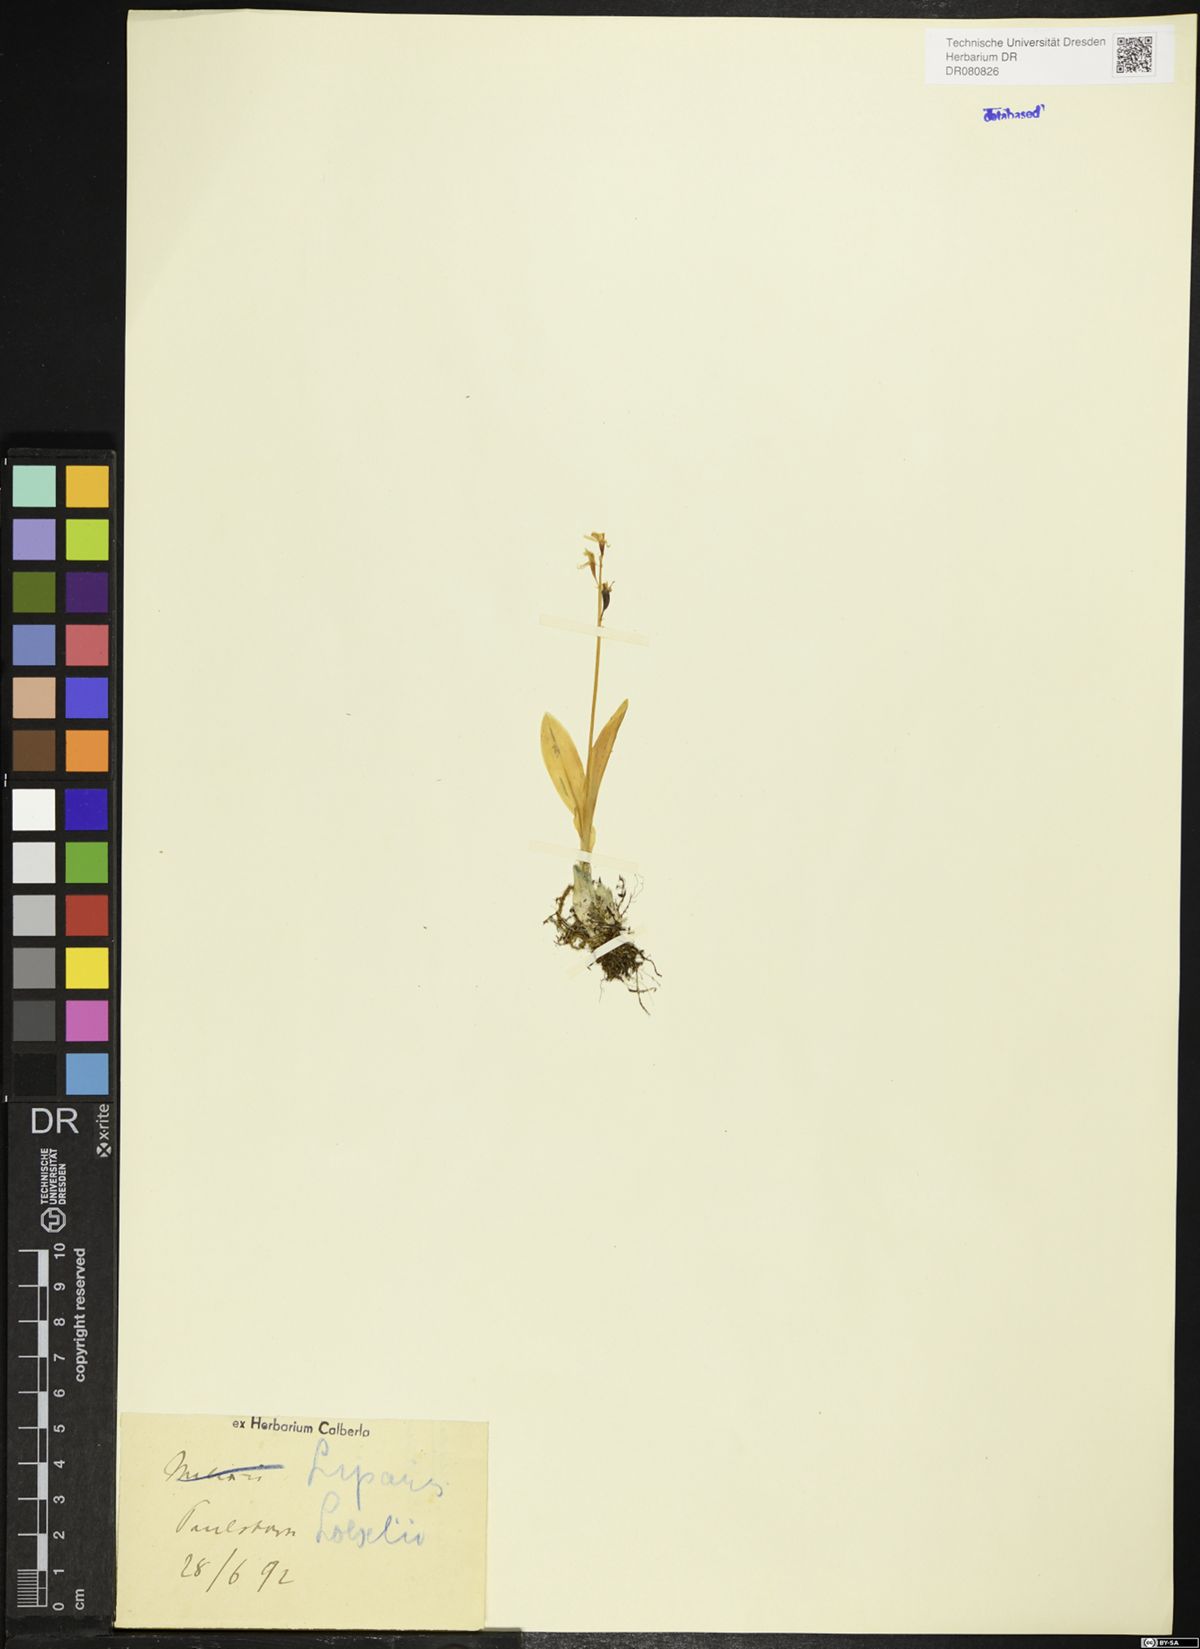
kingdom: Animalia
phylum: Arthropoda
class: Insecta
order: Coleoptera
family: Curculionidae
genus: Liparis
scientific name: Liparis loeselii
